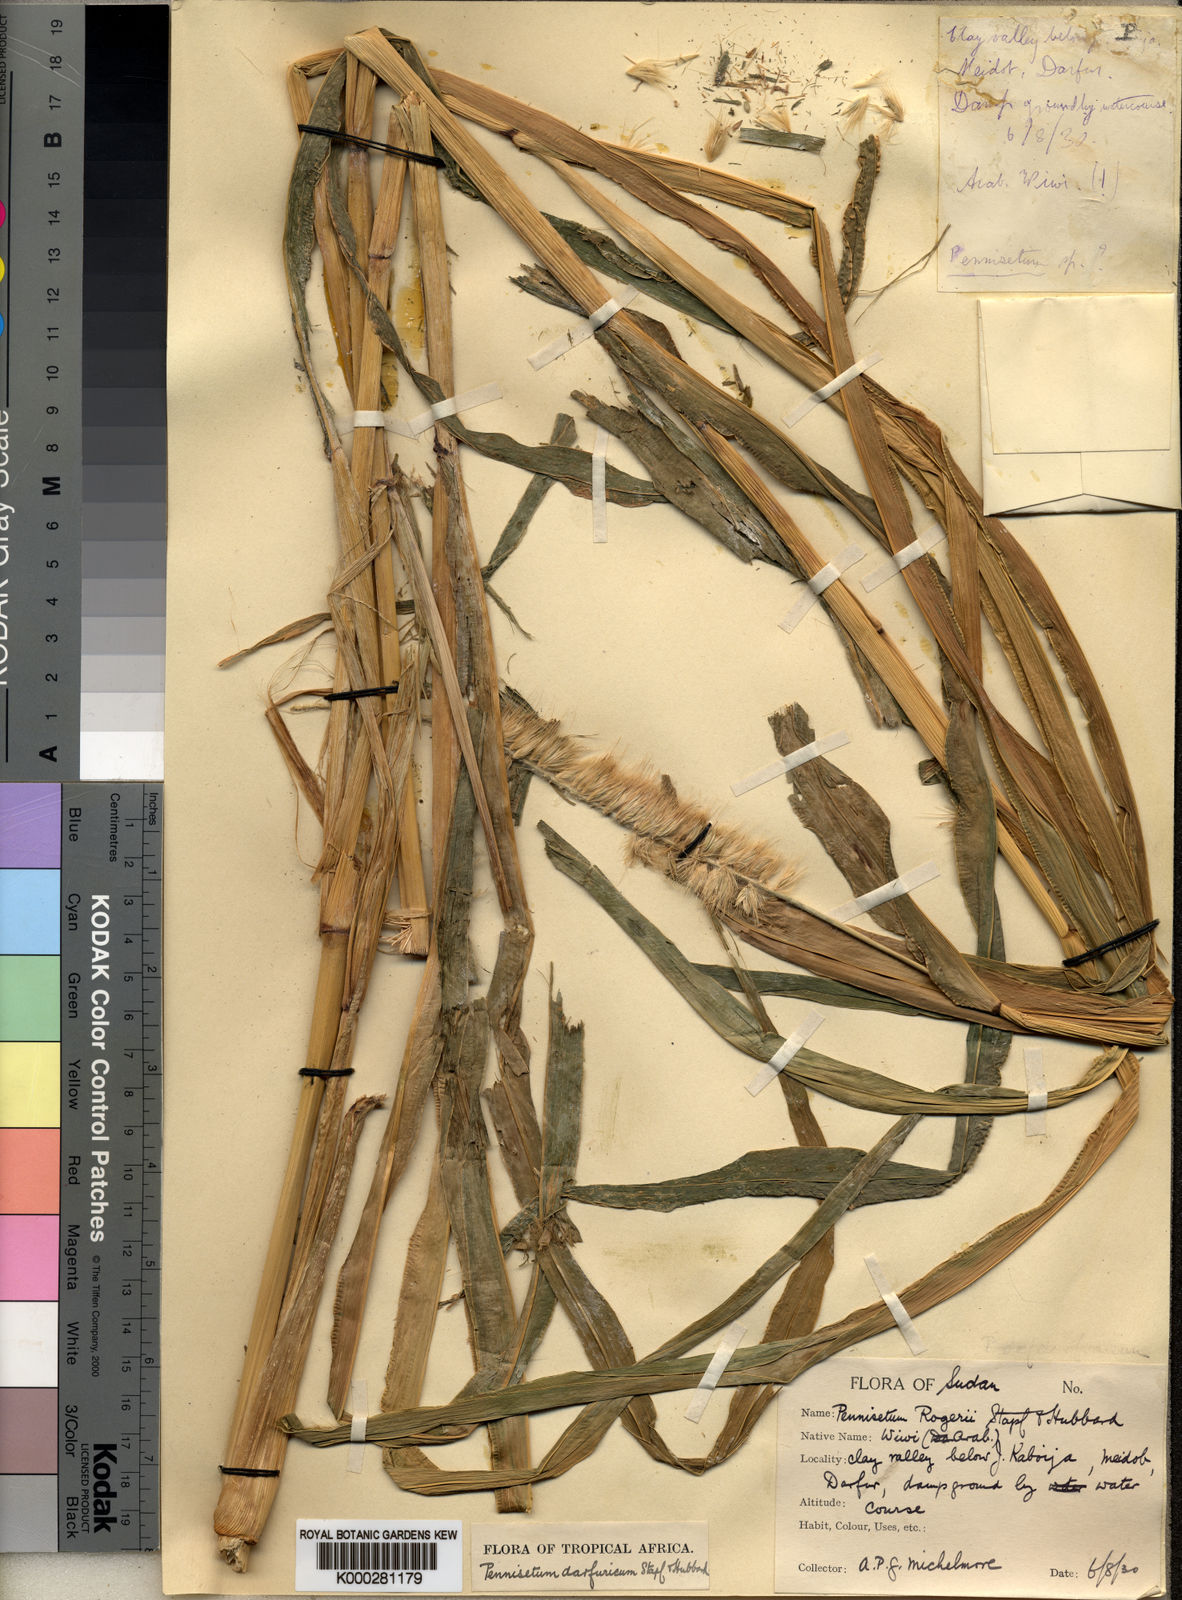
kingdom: Plantae
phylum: Tracheophyta
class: Liliopsida
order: Poales
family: Poaceae
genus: Cenchrus
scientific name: Cenchrus violaceus
